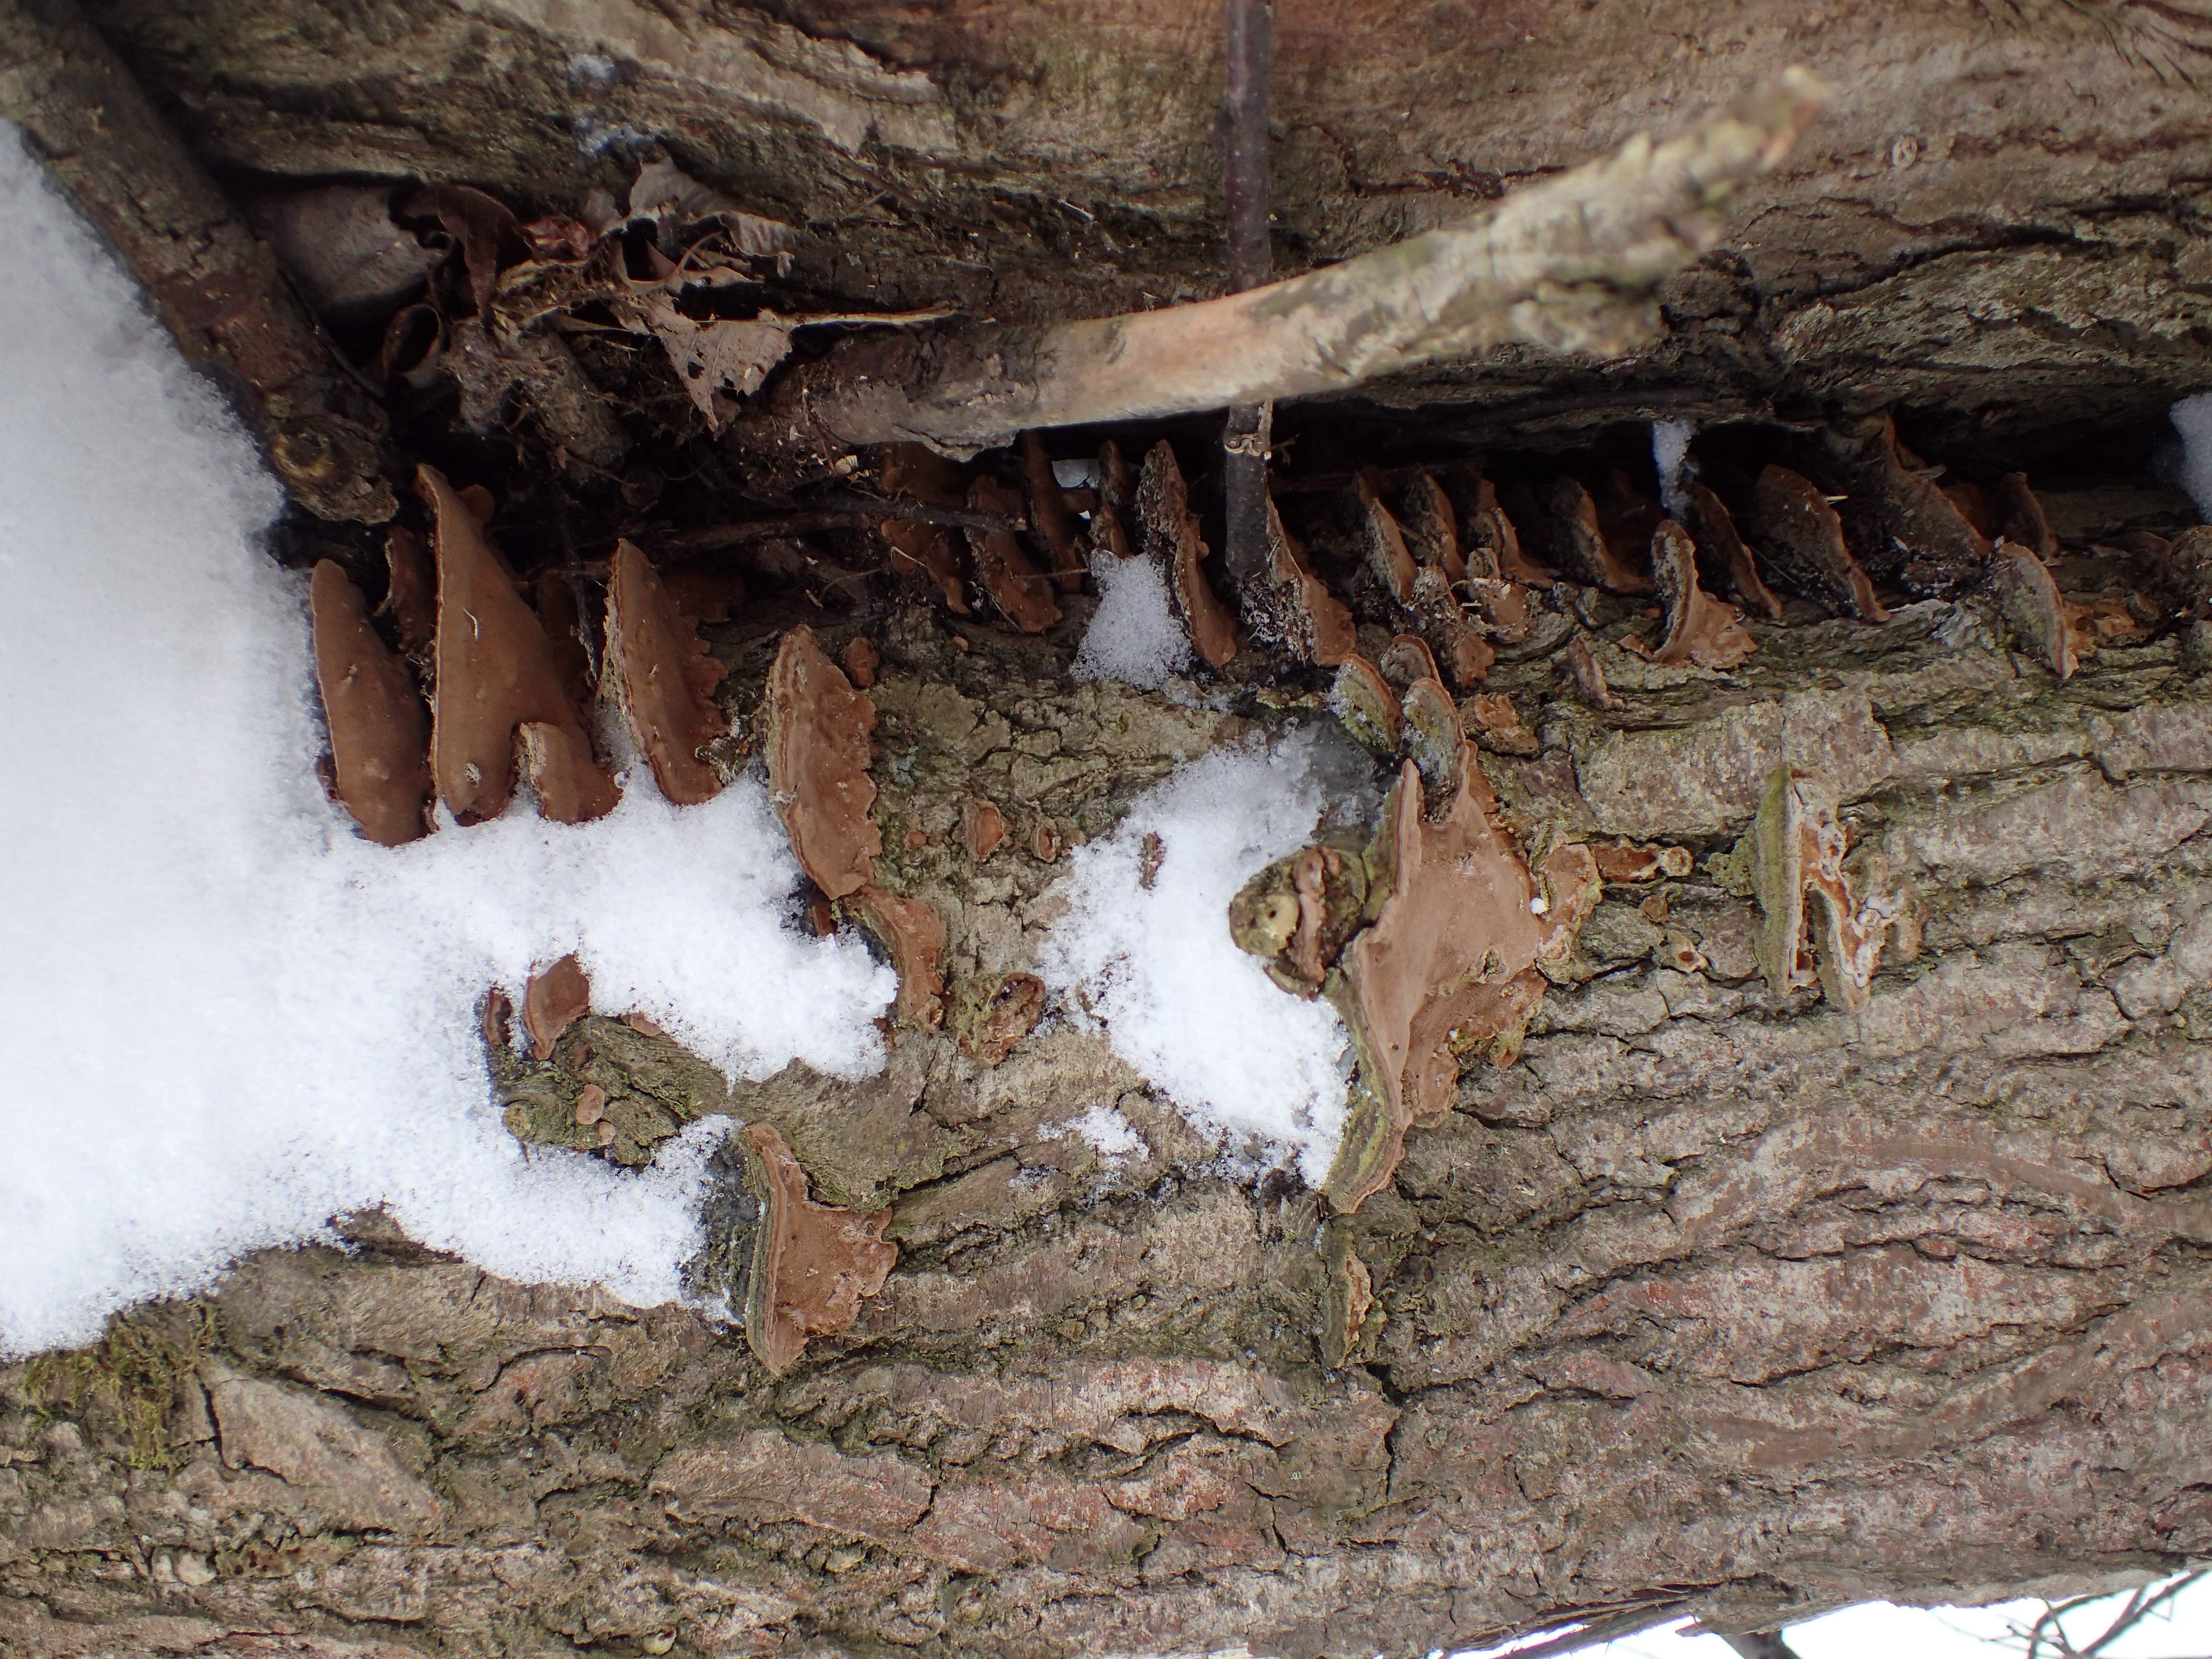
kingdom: Fungi
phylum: Basidiomycota
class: Agaricomycetes
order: Hymenochaetales
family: Hymenochaetaceae
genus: Phellinopsis
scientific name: Phellinopsis conchata
